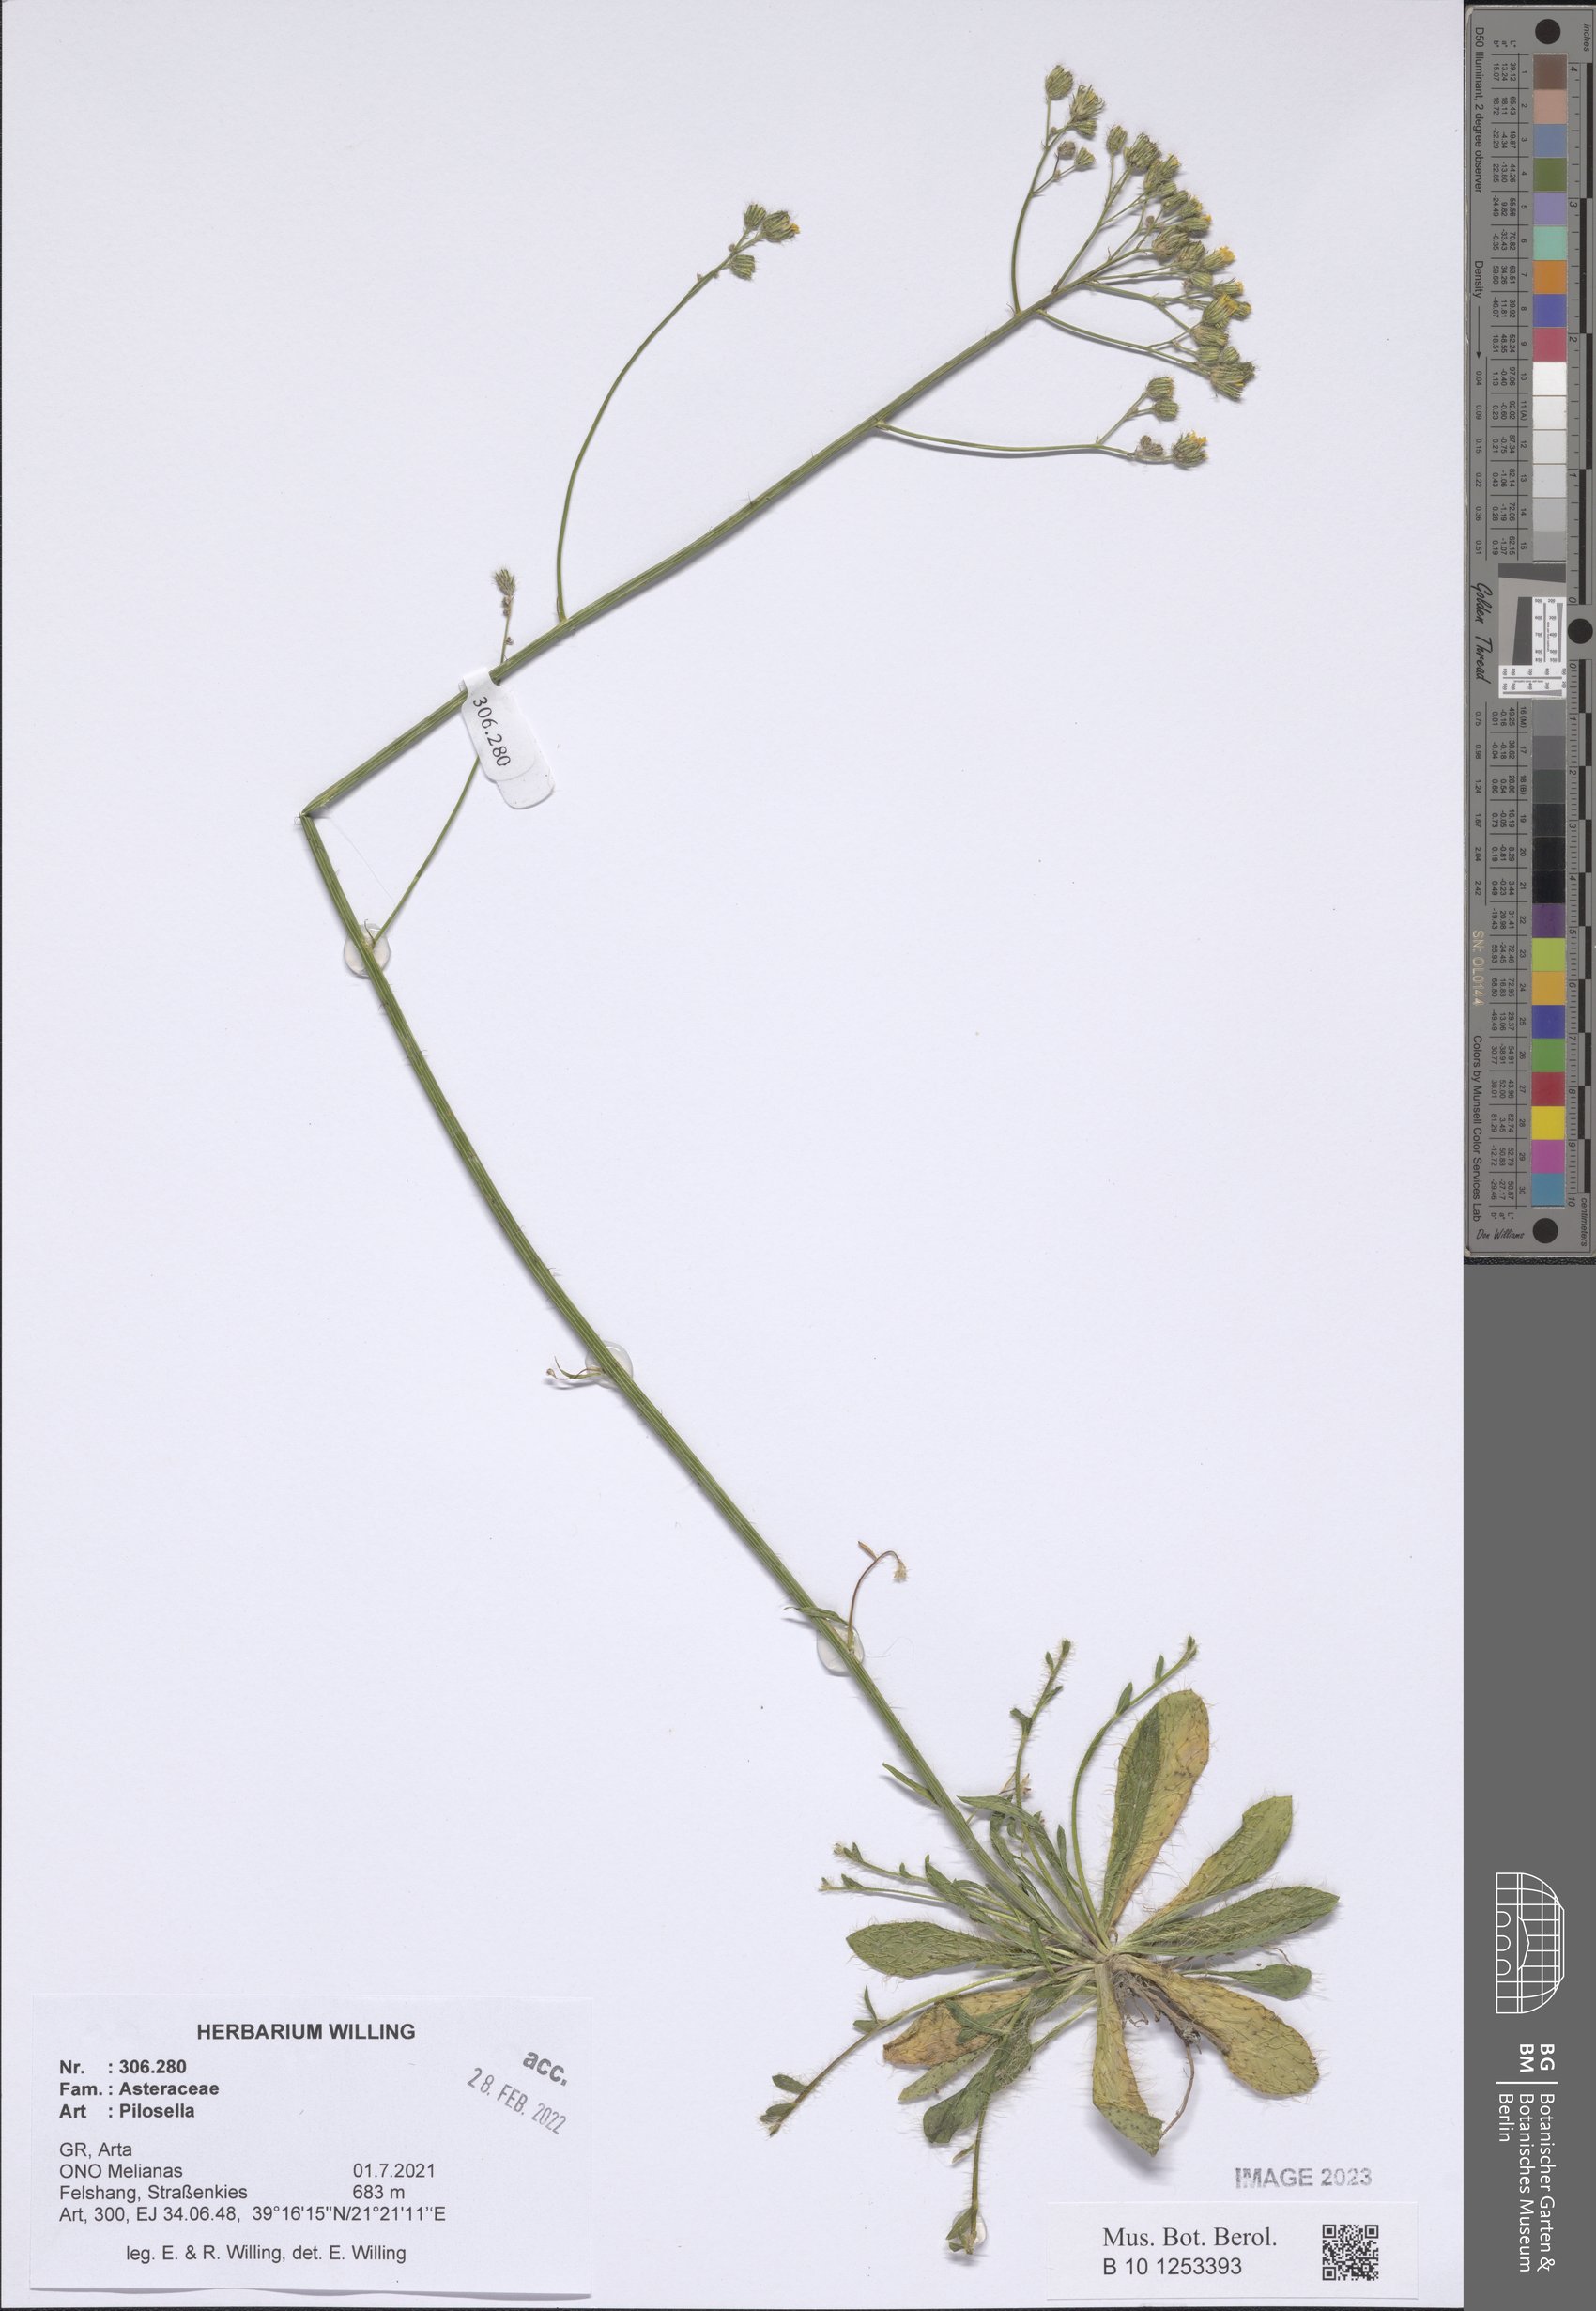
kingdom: Plantae
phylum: Tracheophyta
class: Magnoliopsida
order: Asterales
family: Asteraceae
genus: Pilosella
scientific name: Pilosella
